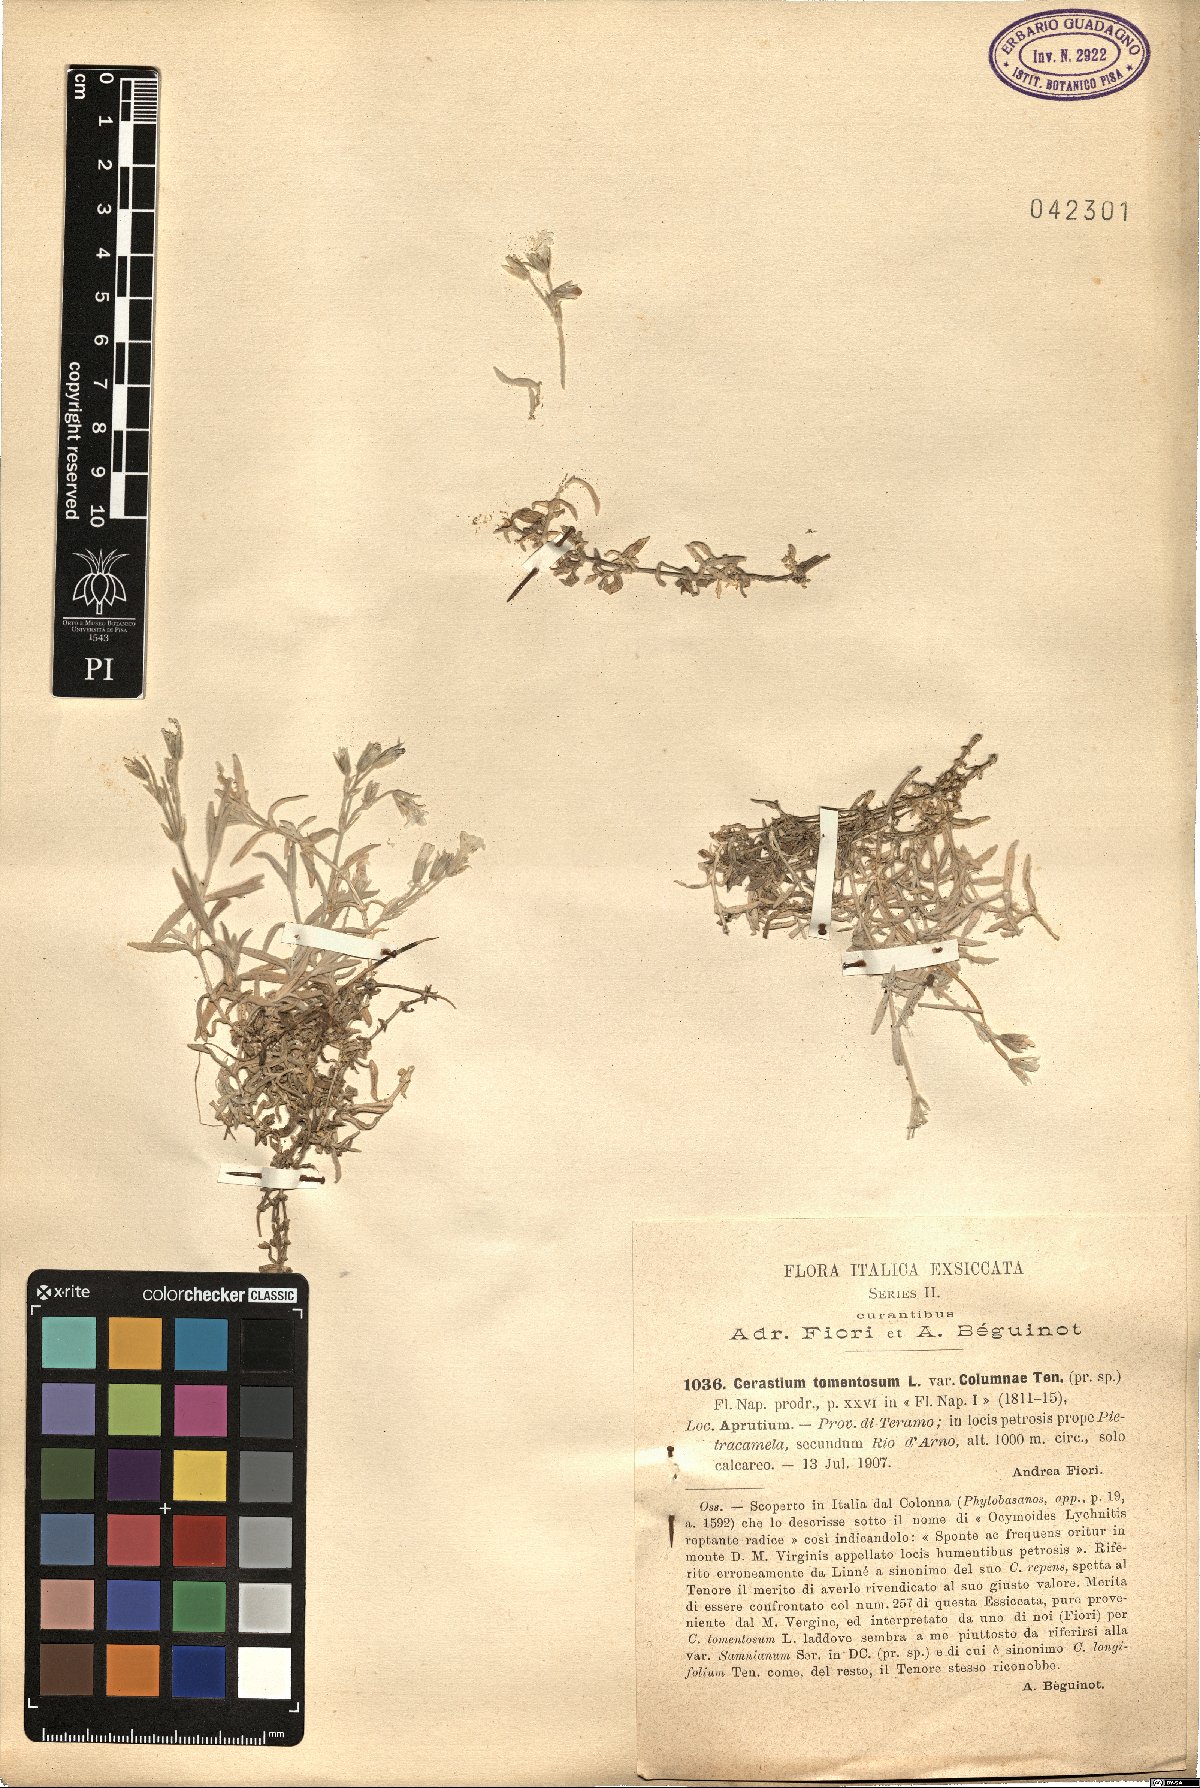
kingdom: Plantae
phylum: Tracheophyta
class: Magnoliopsida
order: Caryophyllales
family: Caryophyllaceae
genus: Cerastium
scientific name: Cerastium tomentosum
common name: Snow-in-summer
